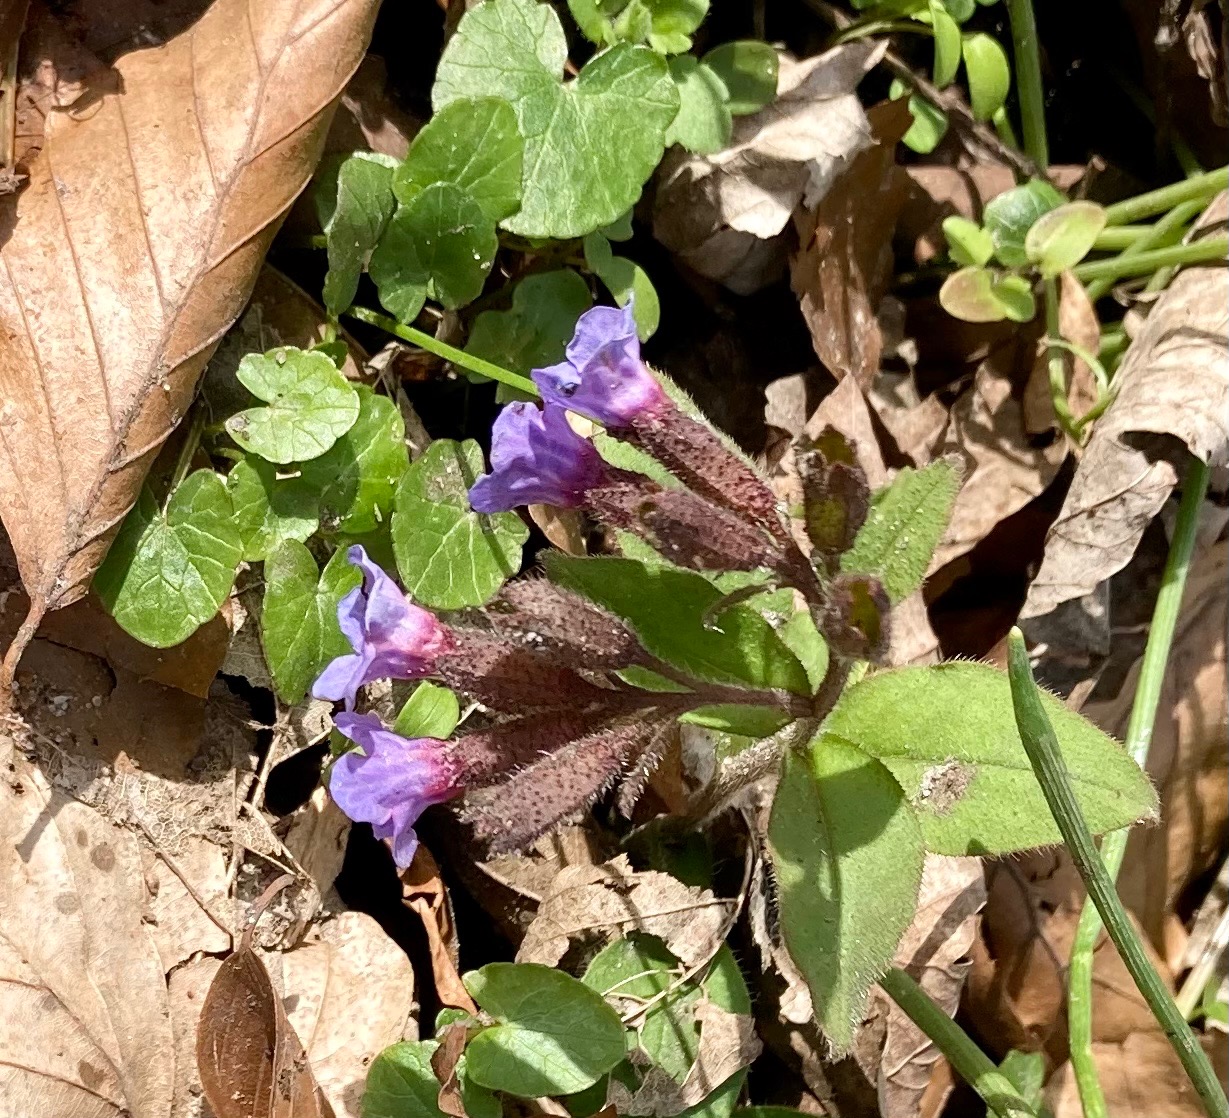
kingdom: Plantae
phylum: Tracheophyta
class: Magnoliopsida
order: Boraginales
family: Boraginaceae
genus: Pulmonaria
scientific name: Pulmonaria obscura
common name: Almindelig lungeurt
